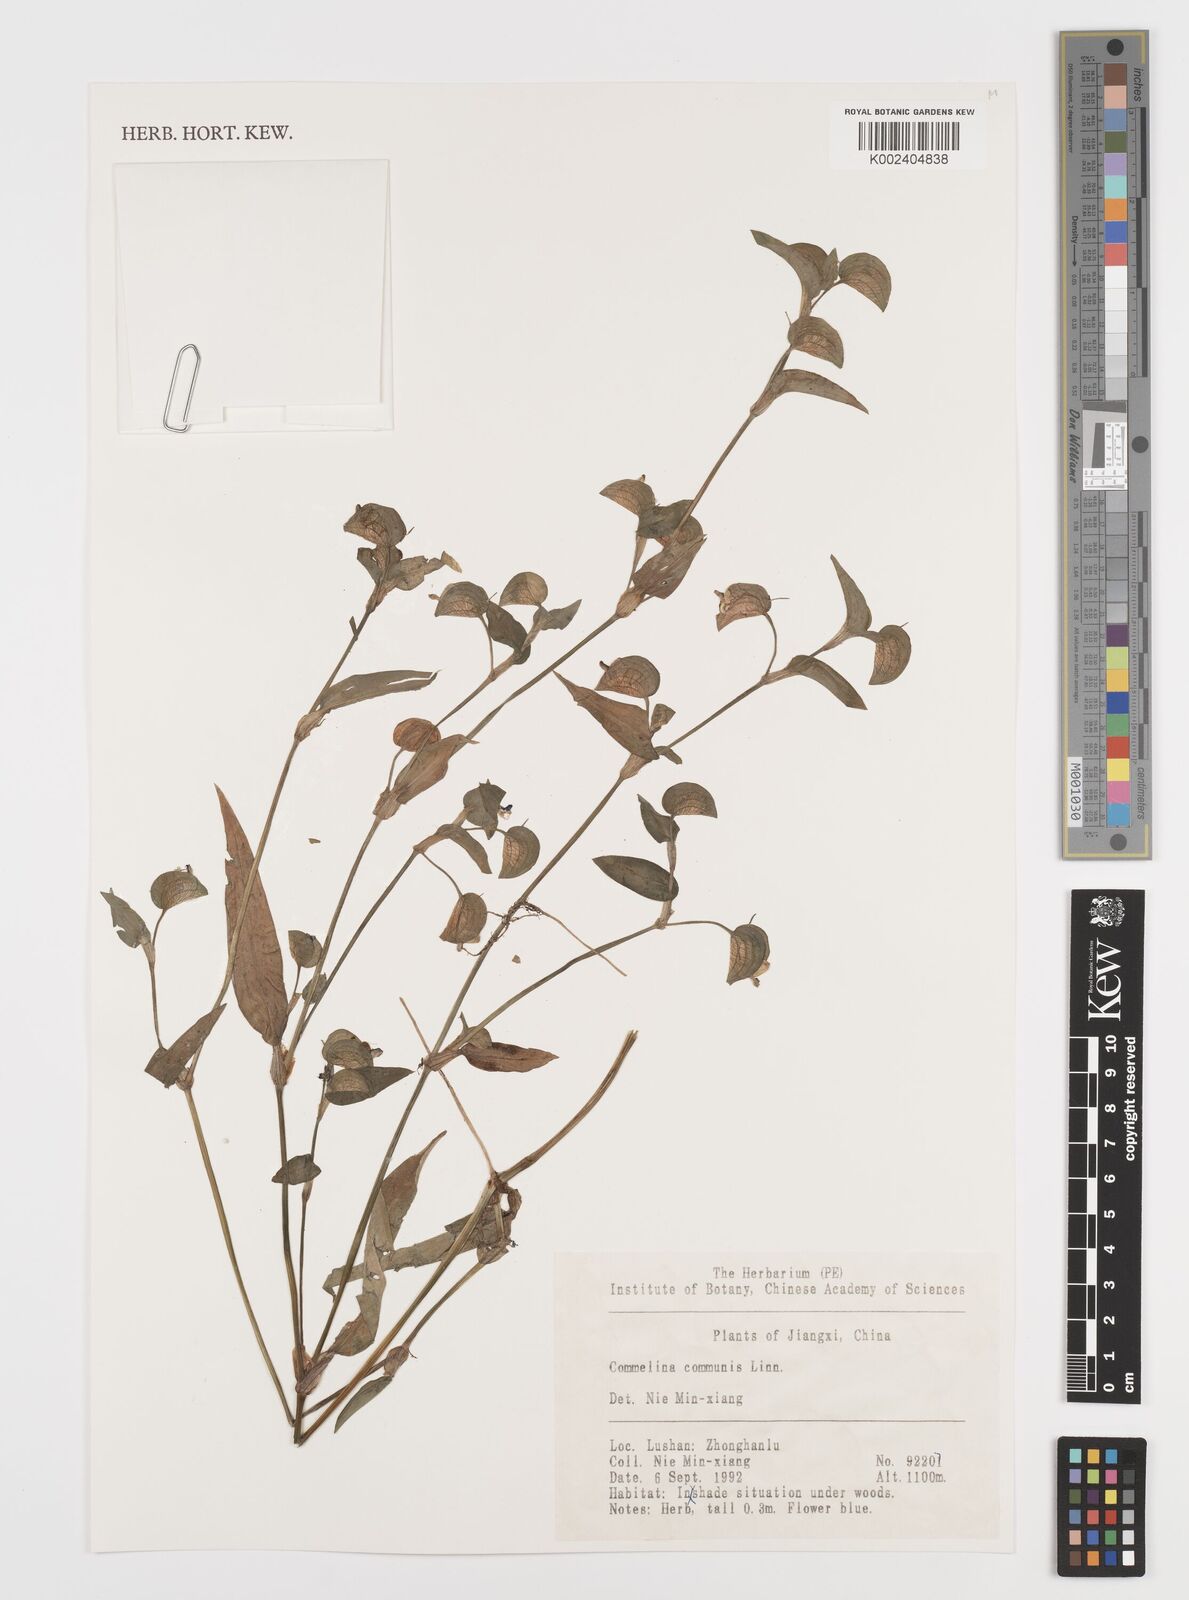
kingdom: Plantae
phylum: Tracheophyta
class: Liliopsida
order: Commelinales
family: Commelinaceae
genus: Commelina
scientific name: Commelina communis
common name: Asiatic dayflower
